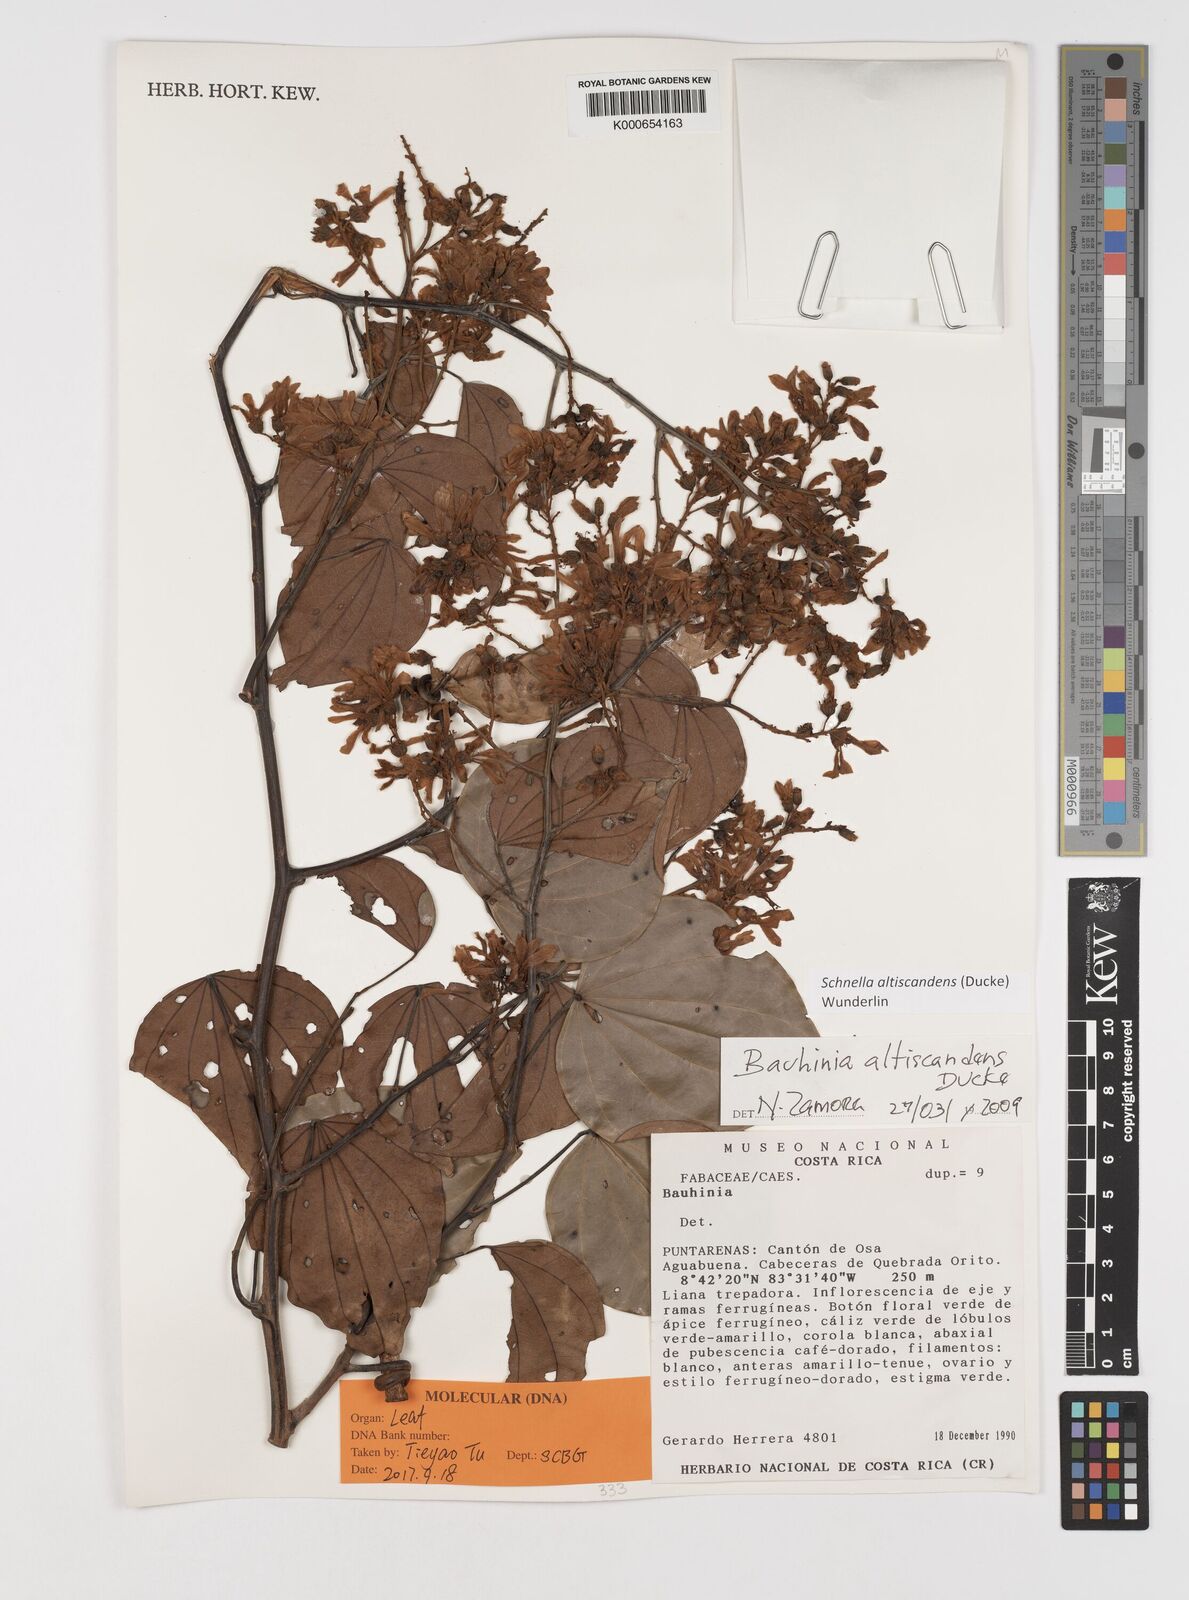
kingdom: Plantae
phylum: Tracheophyta
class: Magnoliopsida
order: Fabales
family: Fabaceae
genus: Schnella
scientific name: Schnella altiscandens
